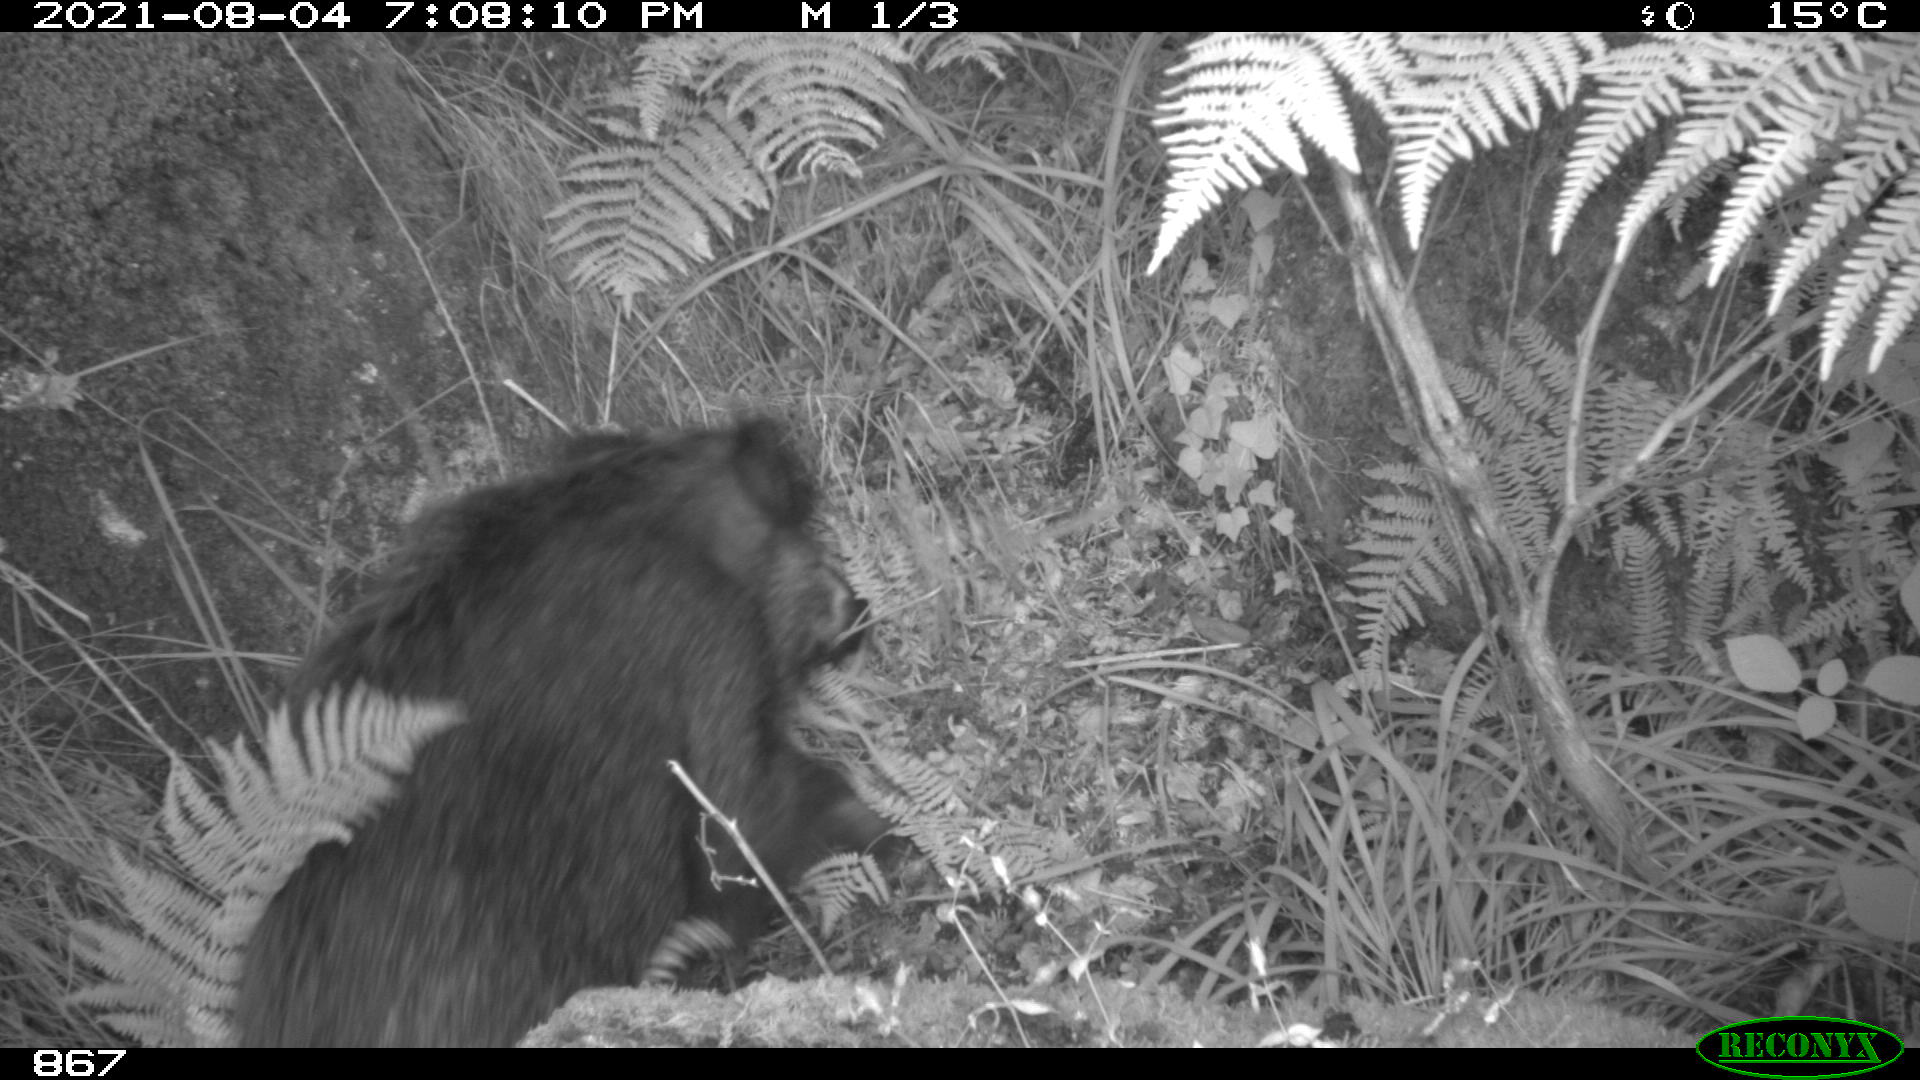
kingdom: Animalia
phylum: Chordata
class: Mammalia
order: Artiodactyla
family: Suidae
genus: Sus
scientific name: Sus scrofa
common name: Wild boar
